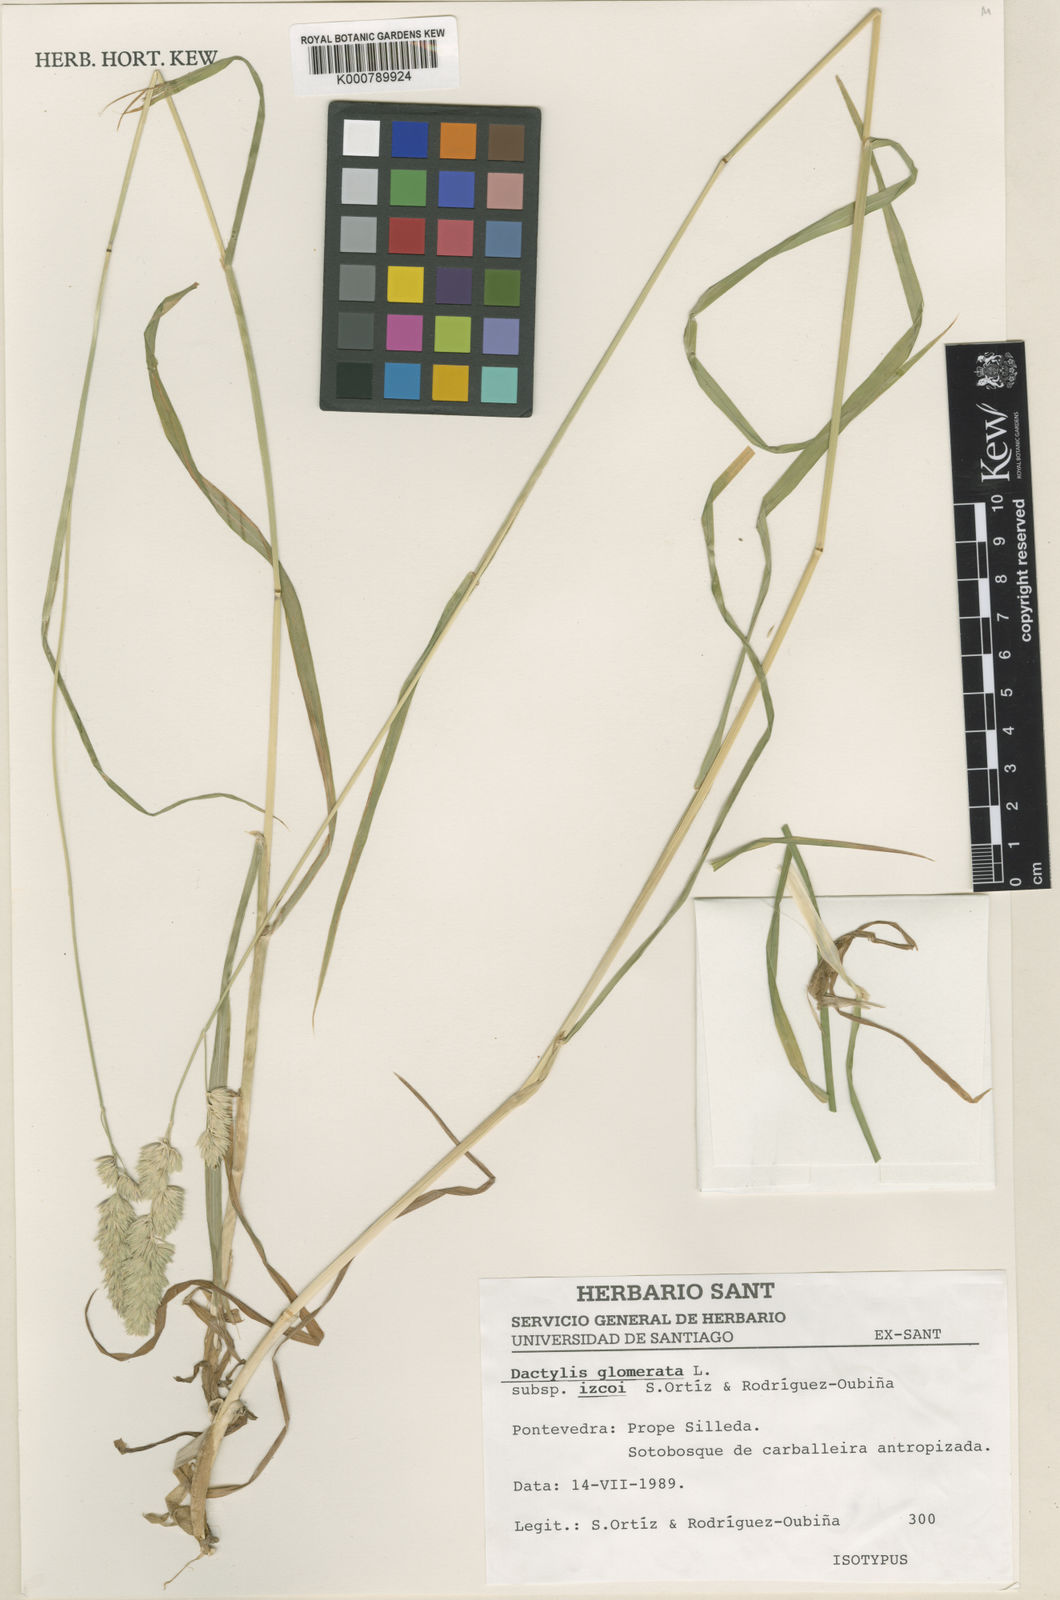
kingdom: Plantae
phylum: Tracheophyta
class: Liliopsida
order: Poales
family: Poaceae
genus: Dactylis
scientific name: Dactylis
